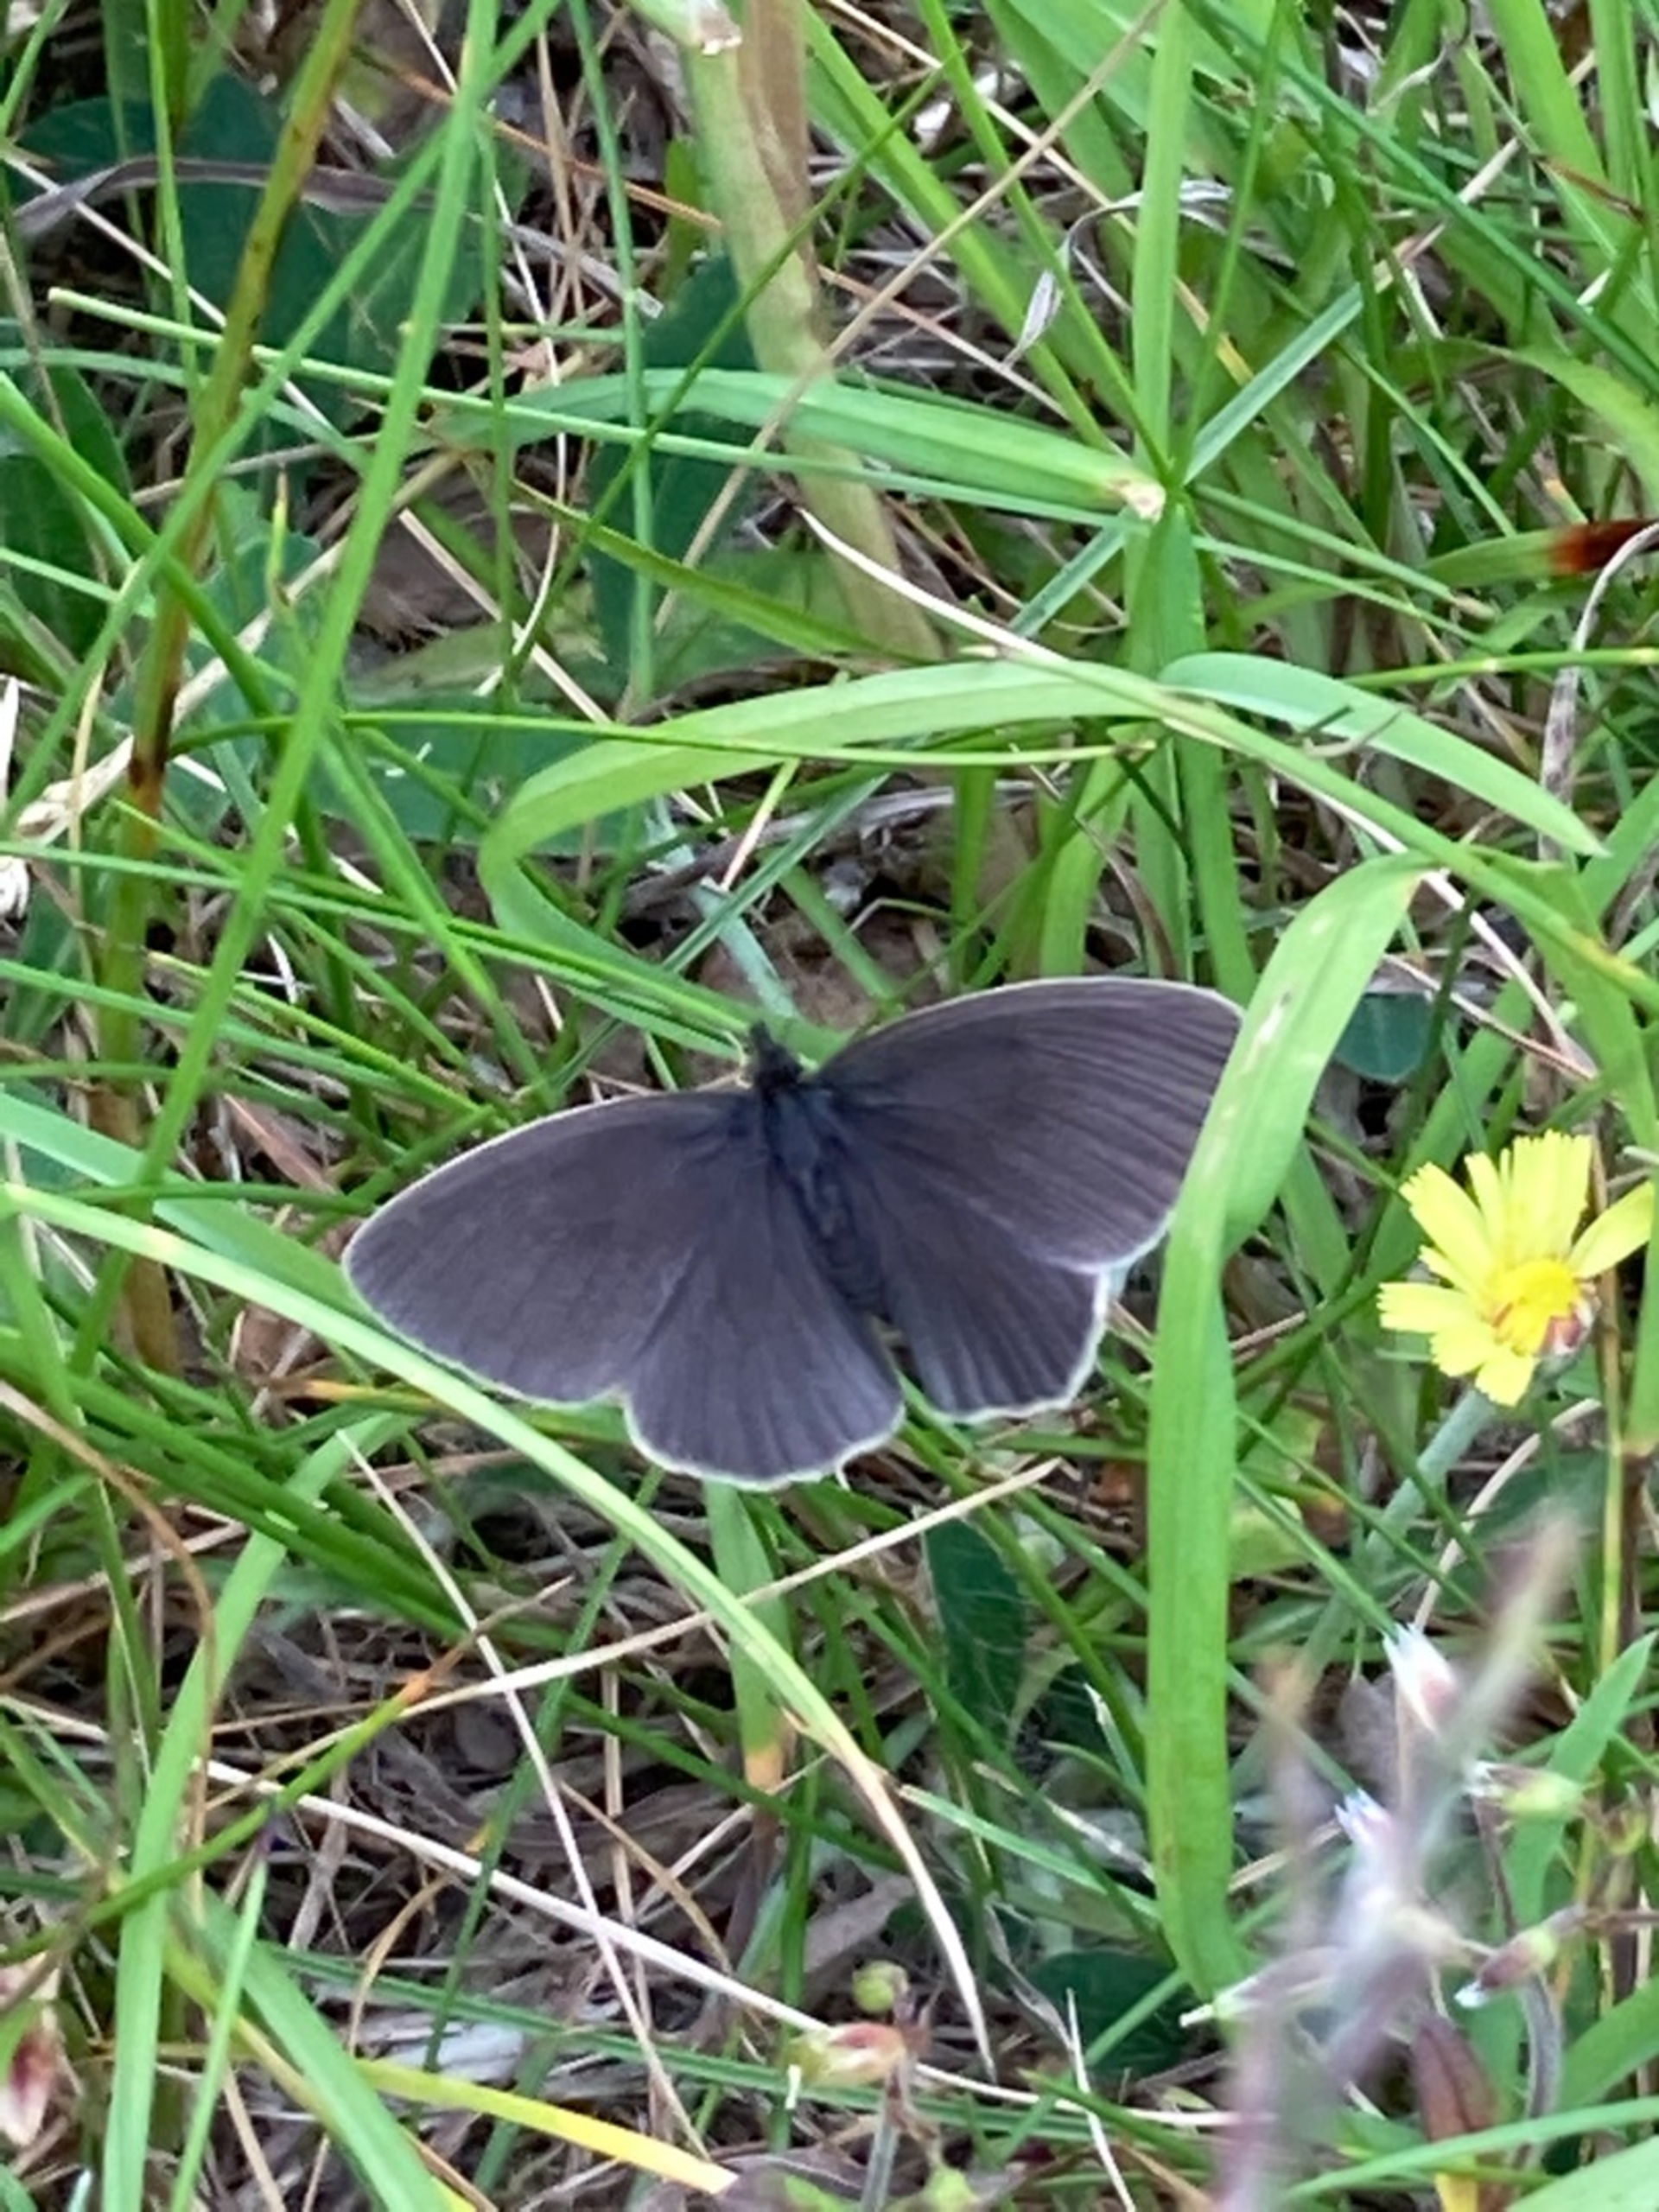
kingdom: Animalia
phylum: Arthropoda
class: Insecta
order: Lepidoptera
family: Nymphalidae
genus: Aphantopus
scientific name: Aphantopus hyperantus
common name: Engrandøje
